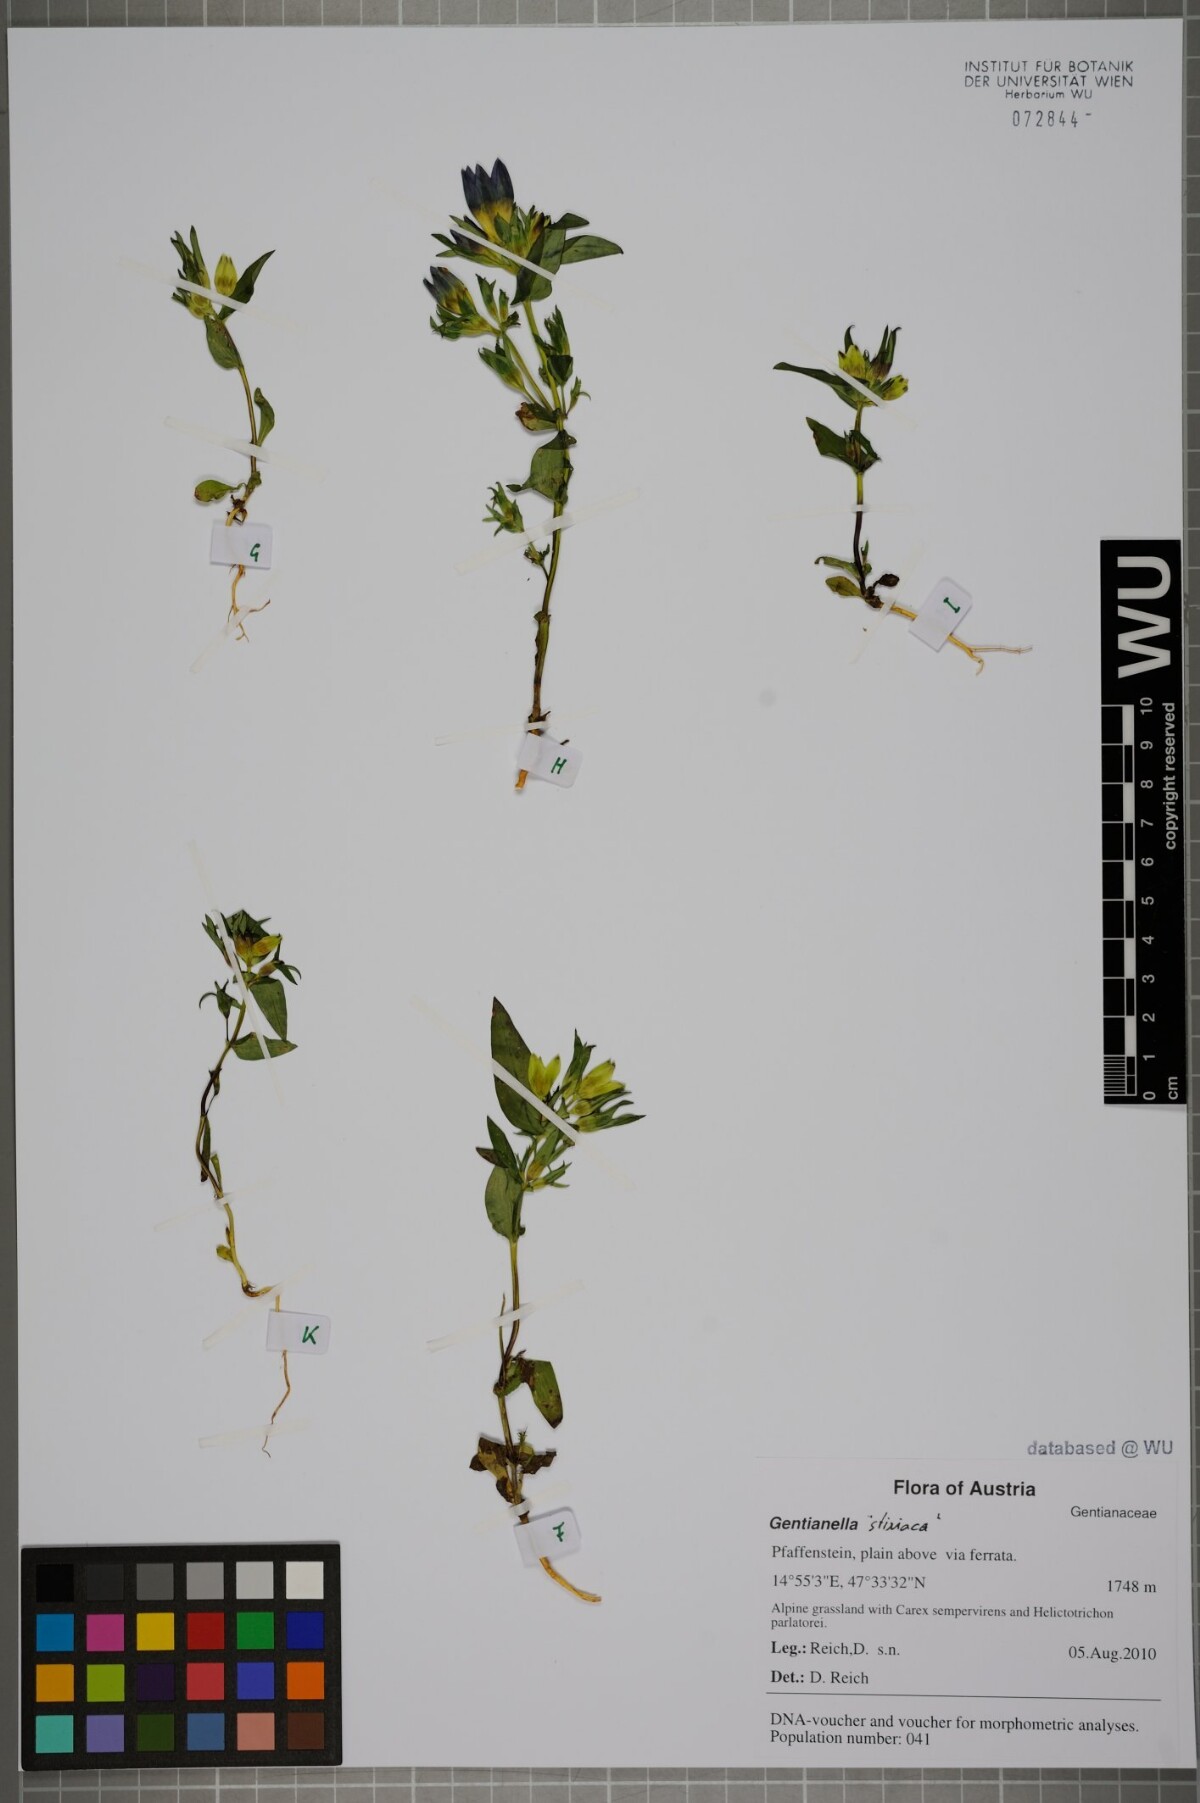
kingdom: Plantae
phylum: Tracheophyta
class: Magnoliopsida
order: Gentianales
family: Gentianaceae
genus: Gentianella
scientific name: Gentianella rhaetica
